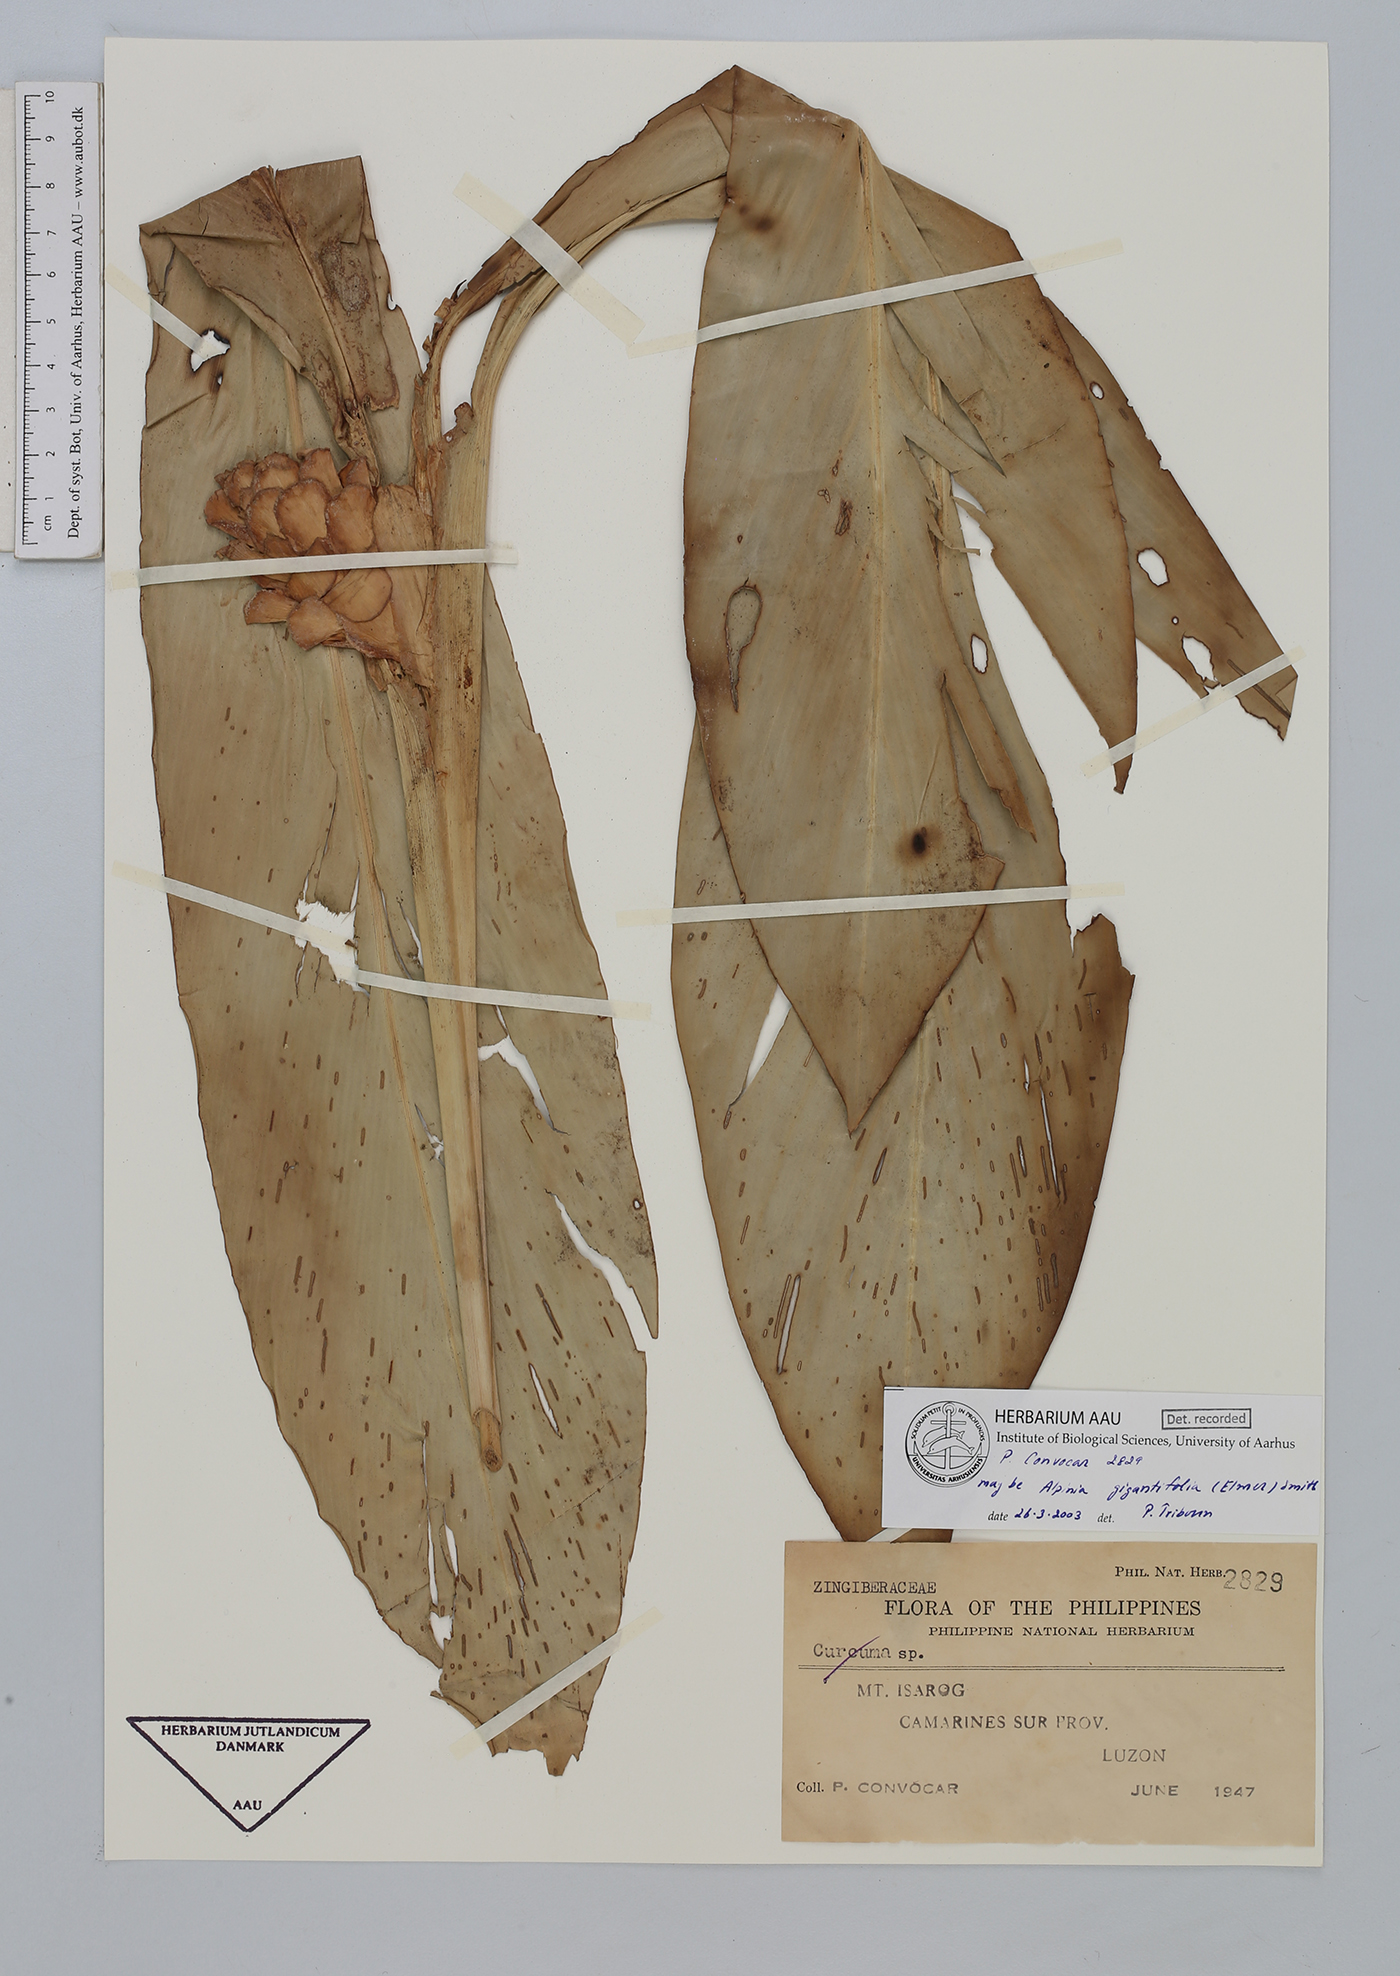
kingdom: Plantae
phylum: Tracheophyta
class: Liliopsida
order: Zingiberales
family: Zingiberaceae
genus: Adelmeria
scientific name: Adelmeria gigantifolia
